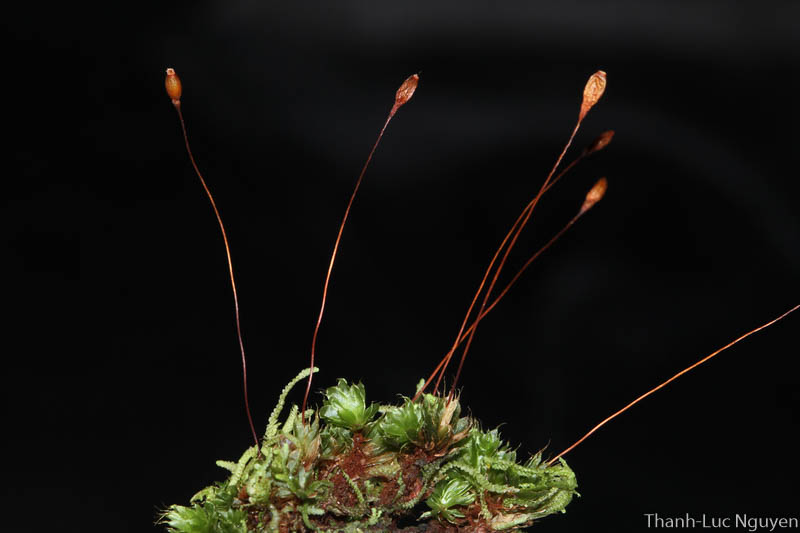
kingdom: Plantae
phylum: Bryophyta
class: Bryopsida
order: Bryales
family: Bryaceae
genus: Brachymenium
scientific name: Brachymenium
